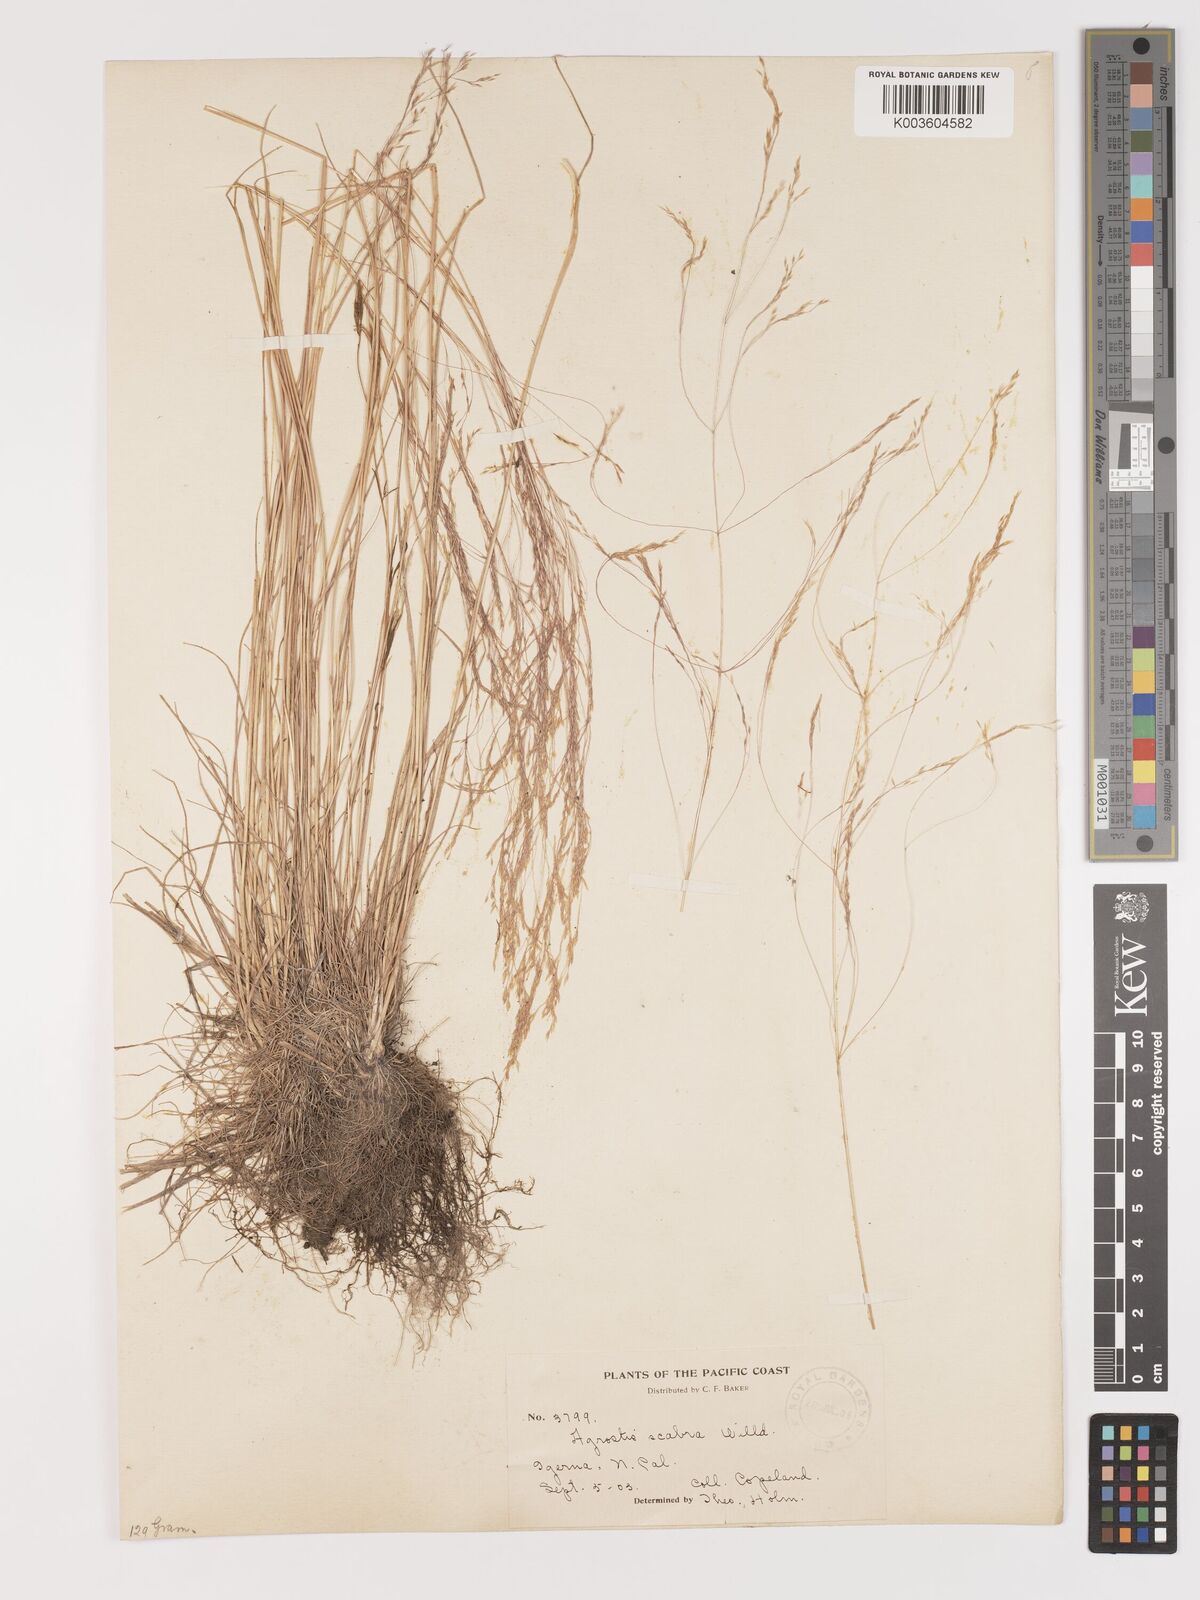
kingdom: Plantae
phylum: Tracheophyta
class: Liliopsida
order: Poales
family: Poaceae
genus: Agrostis
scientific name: Agrostis hyemalis
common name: Small bent
